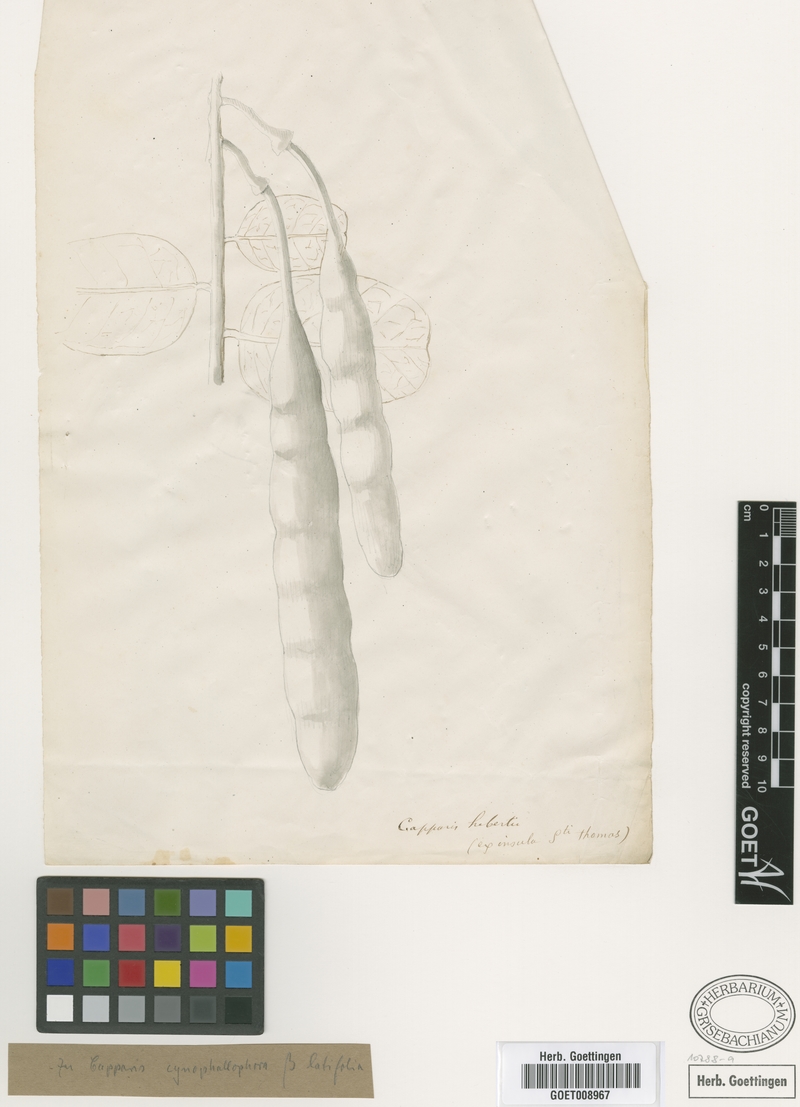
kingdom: Plantae
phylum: Tracheophyta
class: Magnoliopsida
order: Brassicales
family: Capparaceae
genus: Cynophalla
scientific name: Cynophalla hastata
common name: Broadleaf cape
